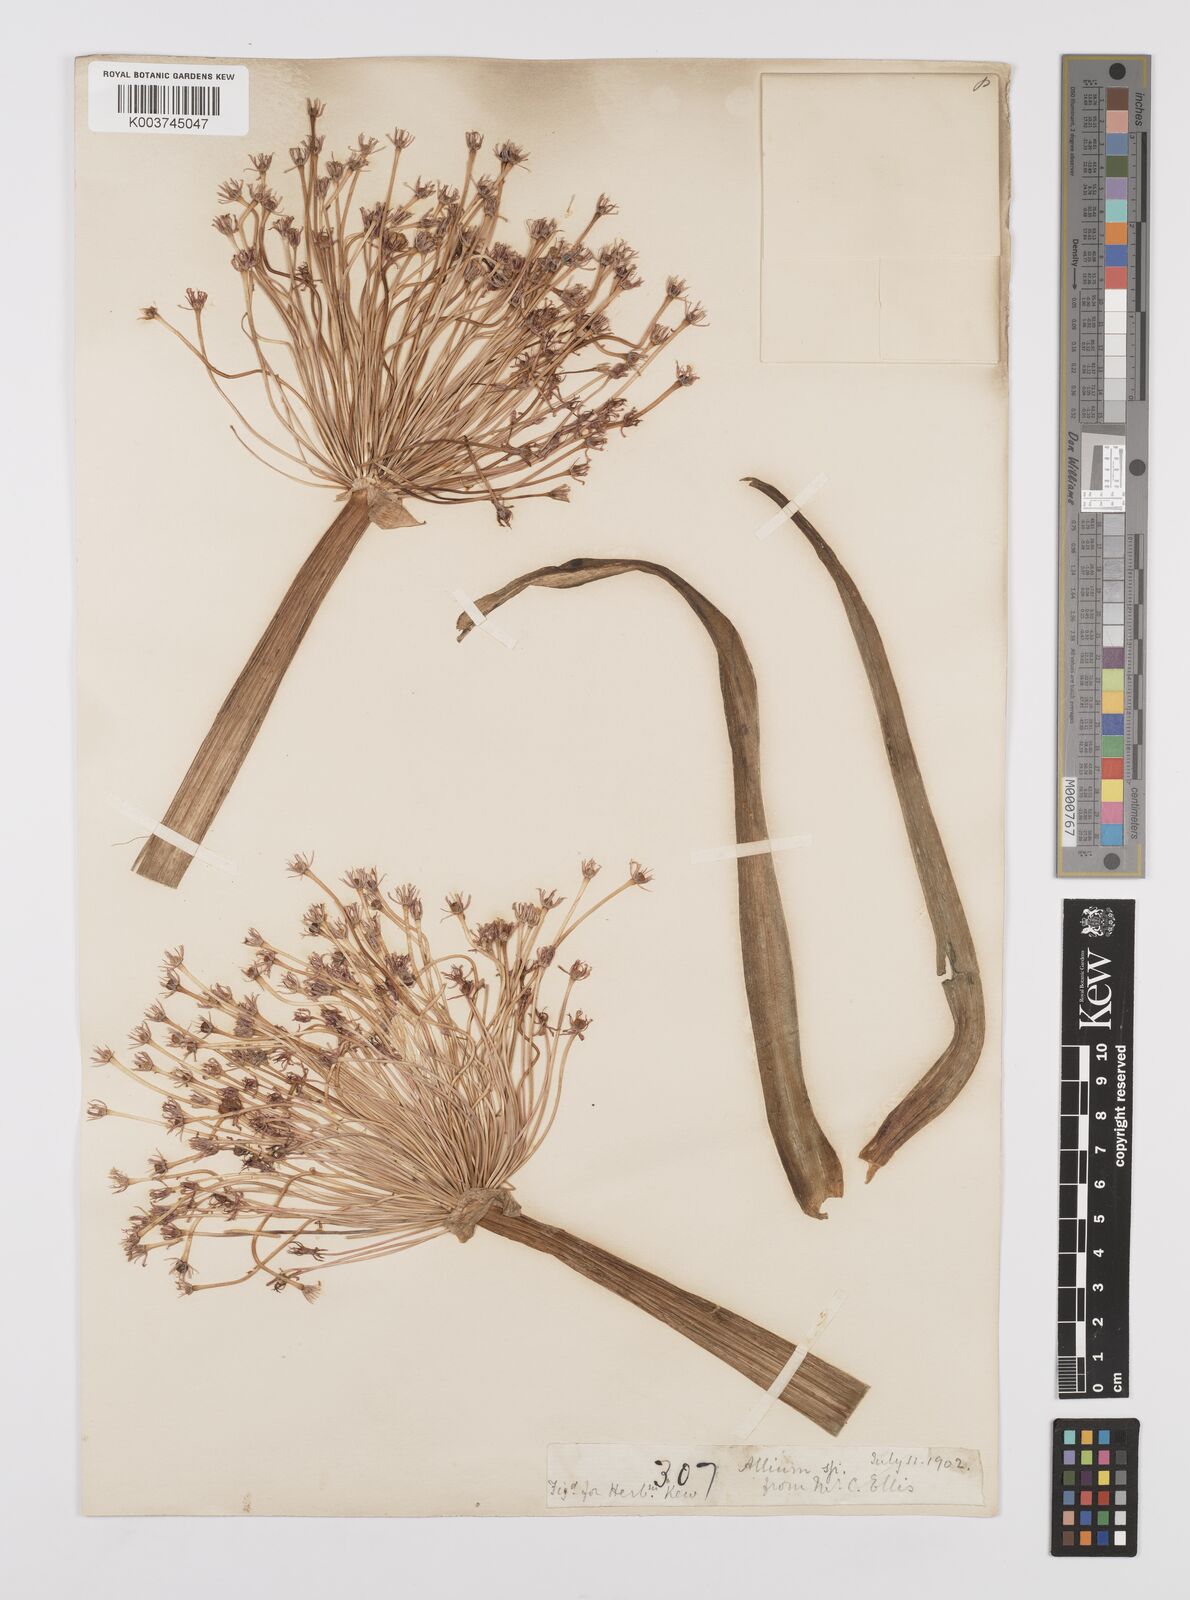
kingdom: Plantae
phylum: Tracheophyta
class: Liliopsida
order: Asparagales
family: Amaryllidaceae
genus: Allium
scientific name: Allium schubertii
